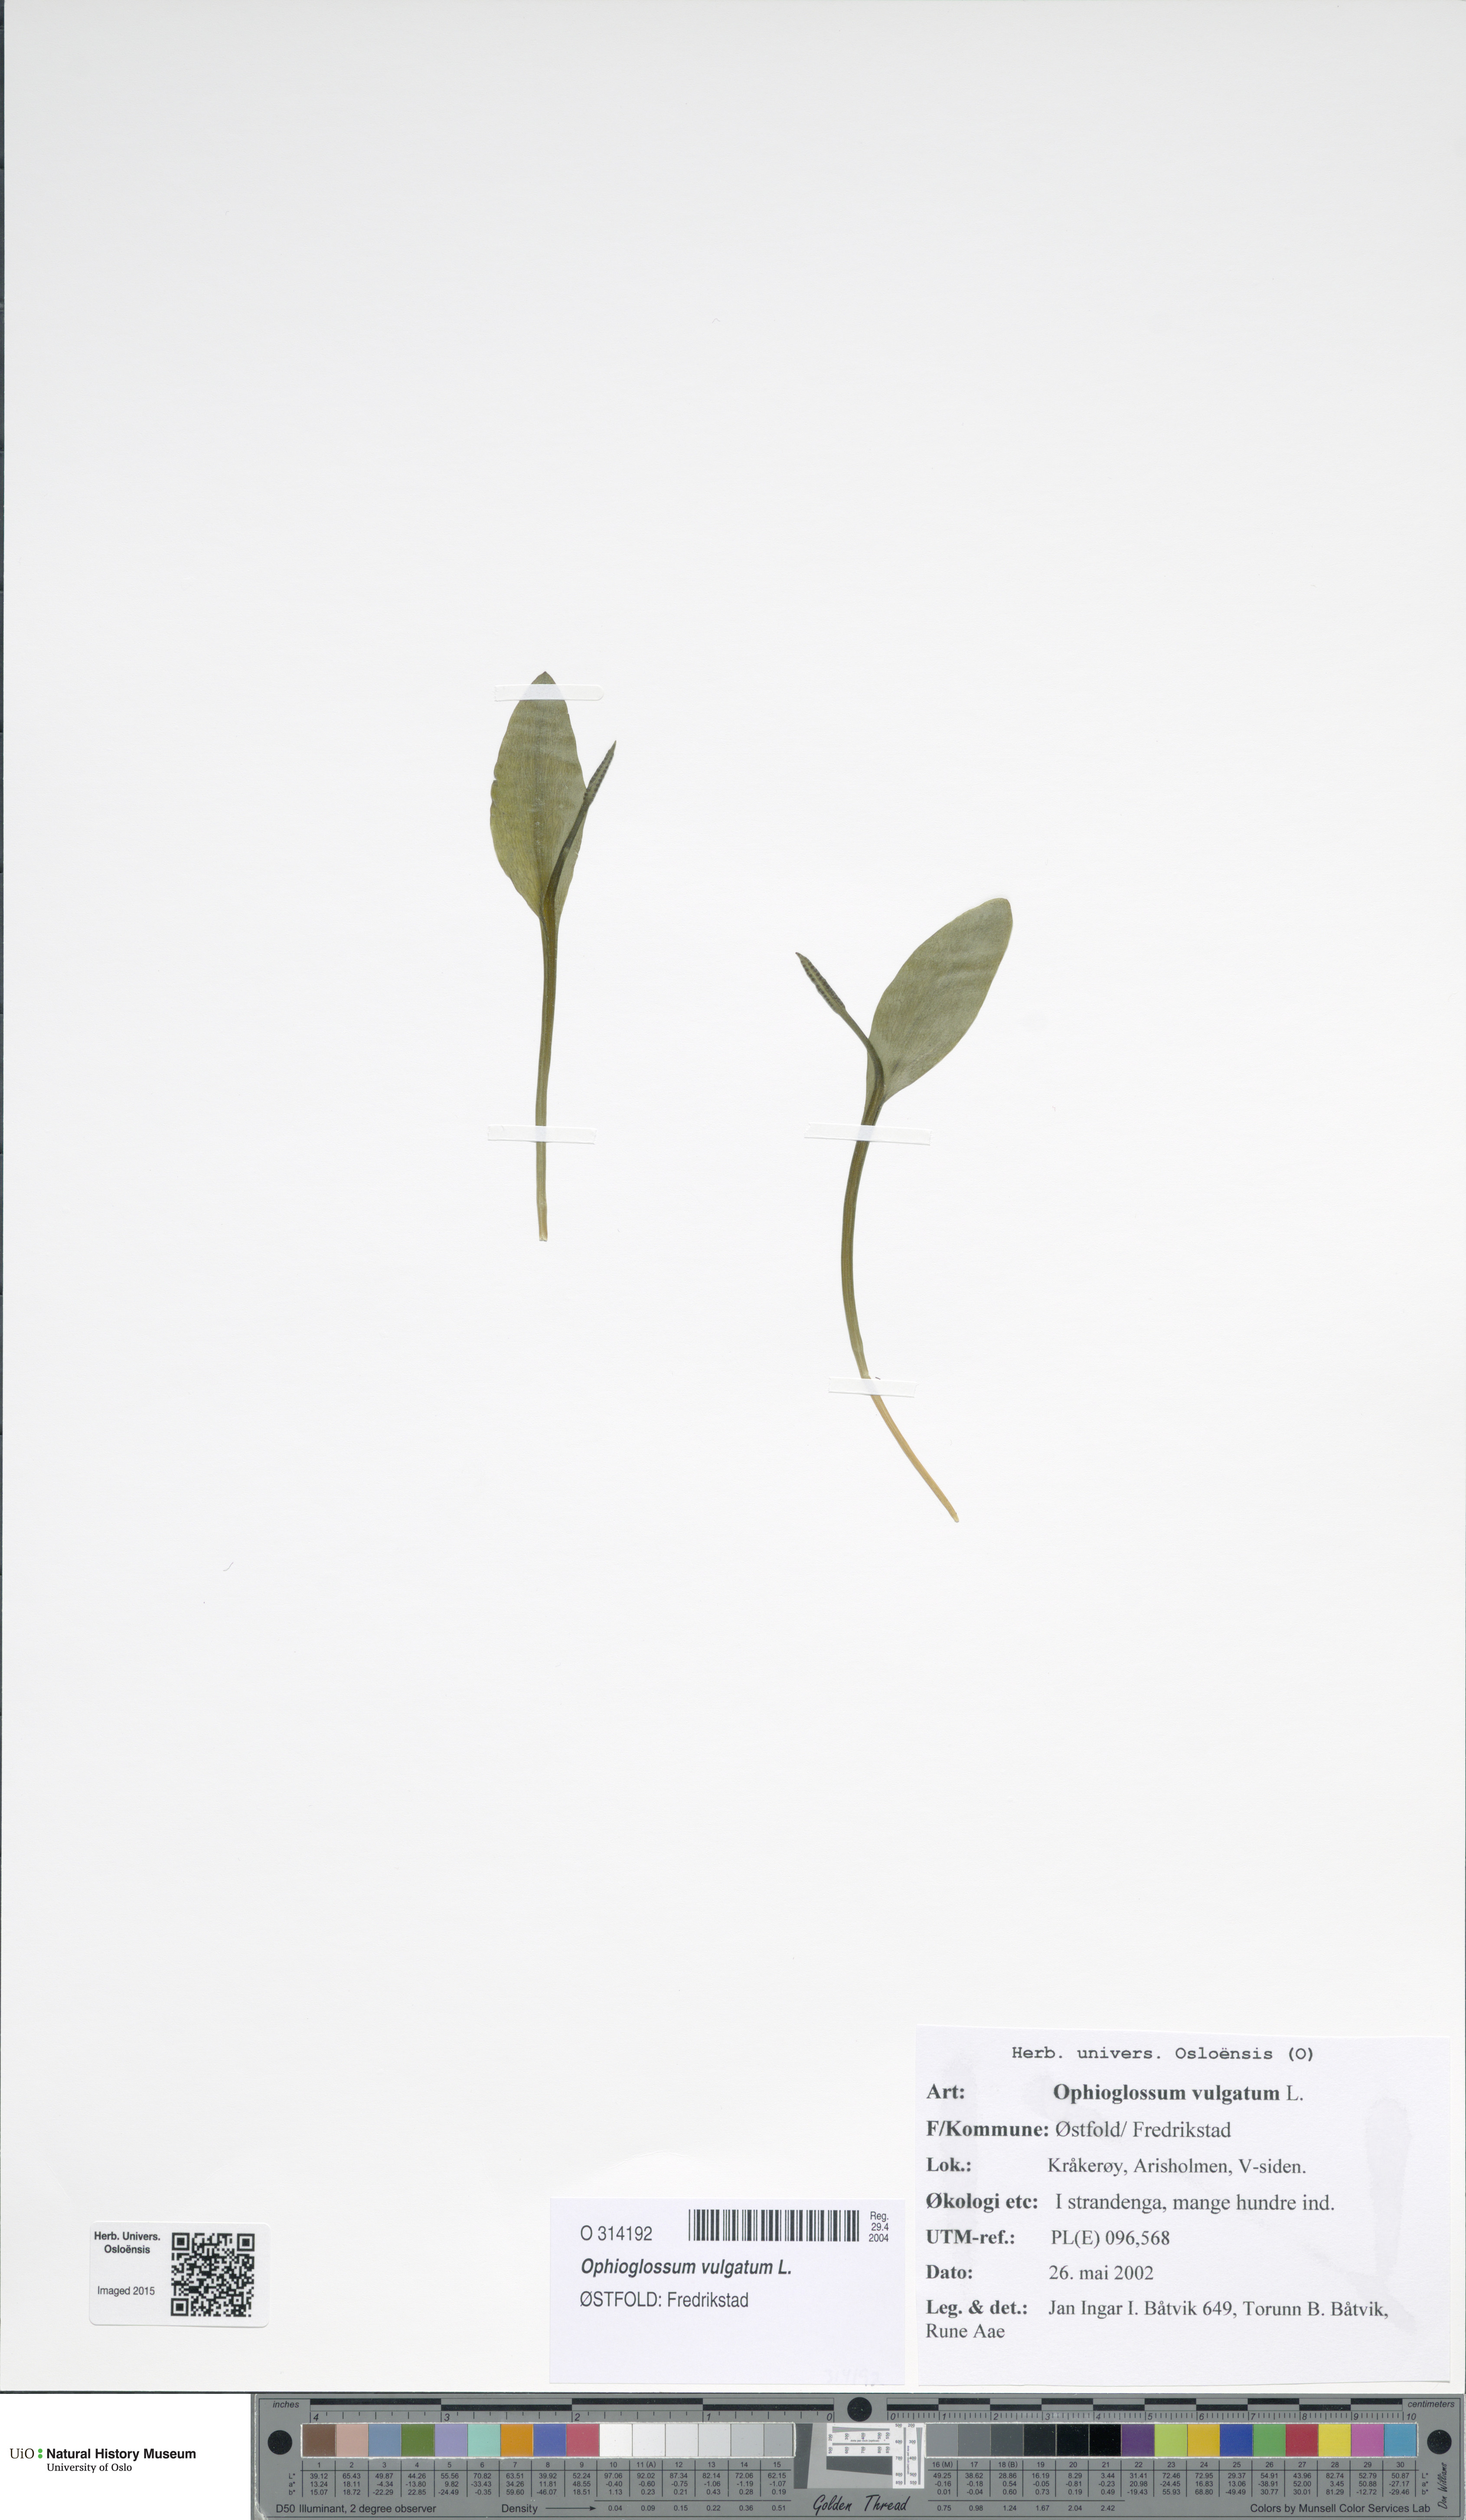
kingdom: Plantae
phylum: Tracheophyta
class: Polypodiopsida
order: Ophioglossales
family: Ophioglossaceae
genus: Ophioglossum
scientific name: Ophioglossum vulgatum
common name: Adder's-tongue
